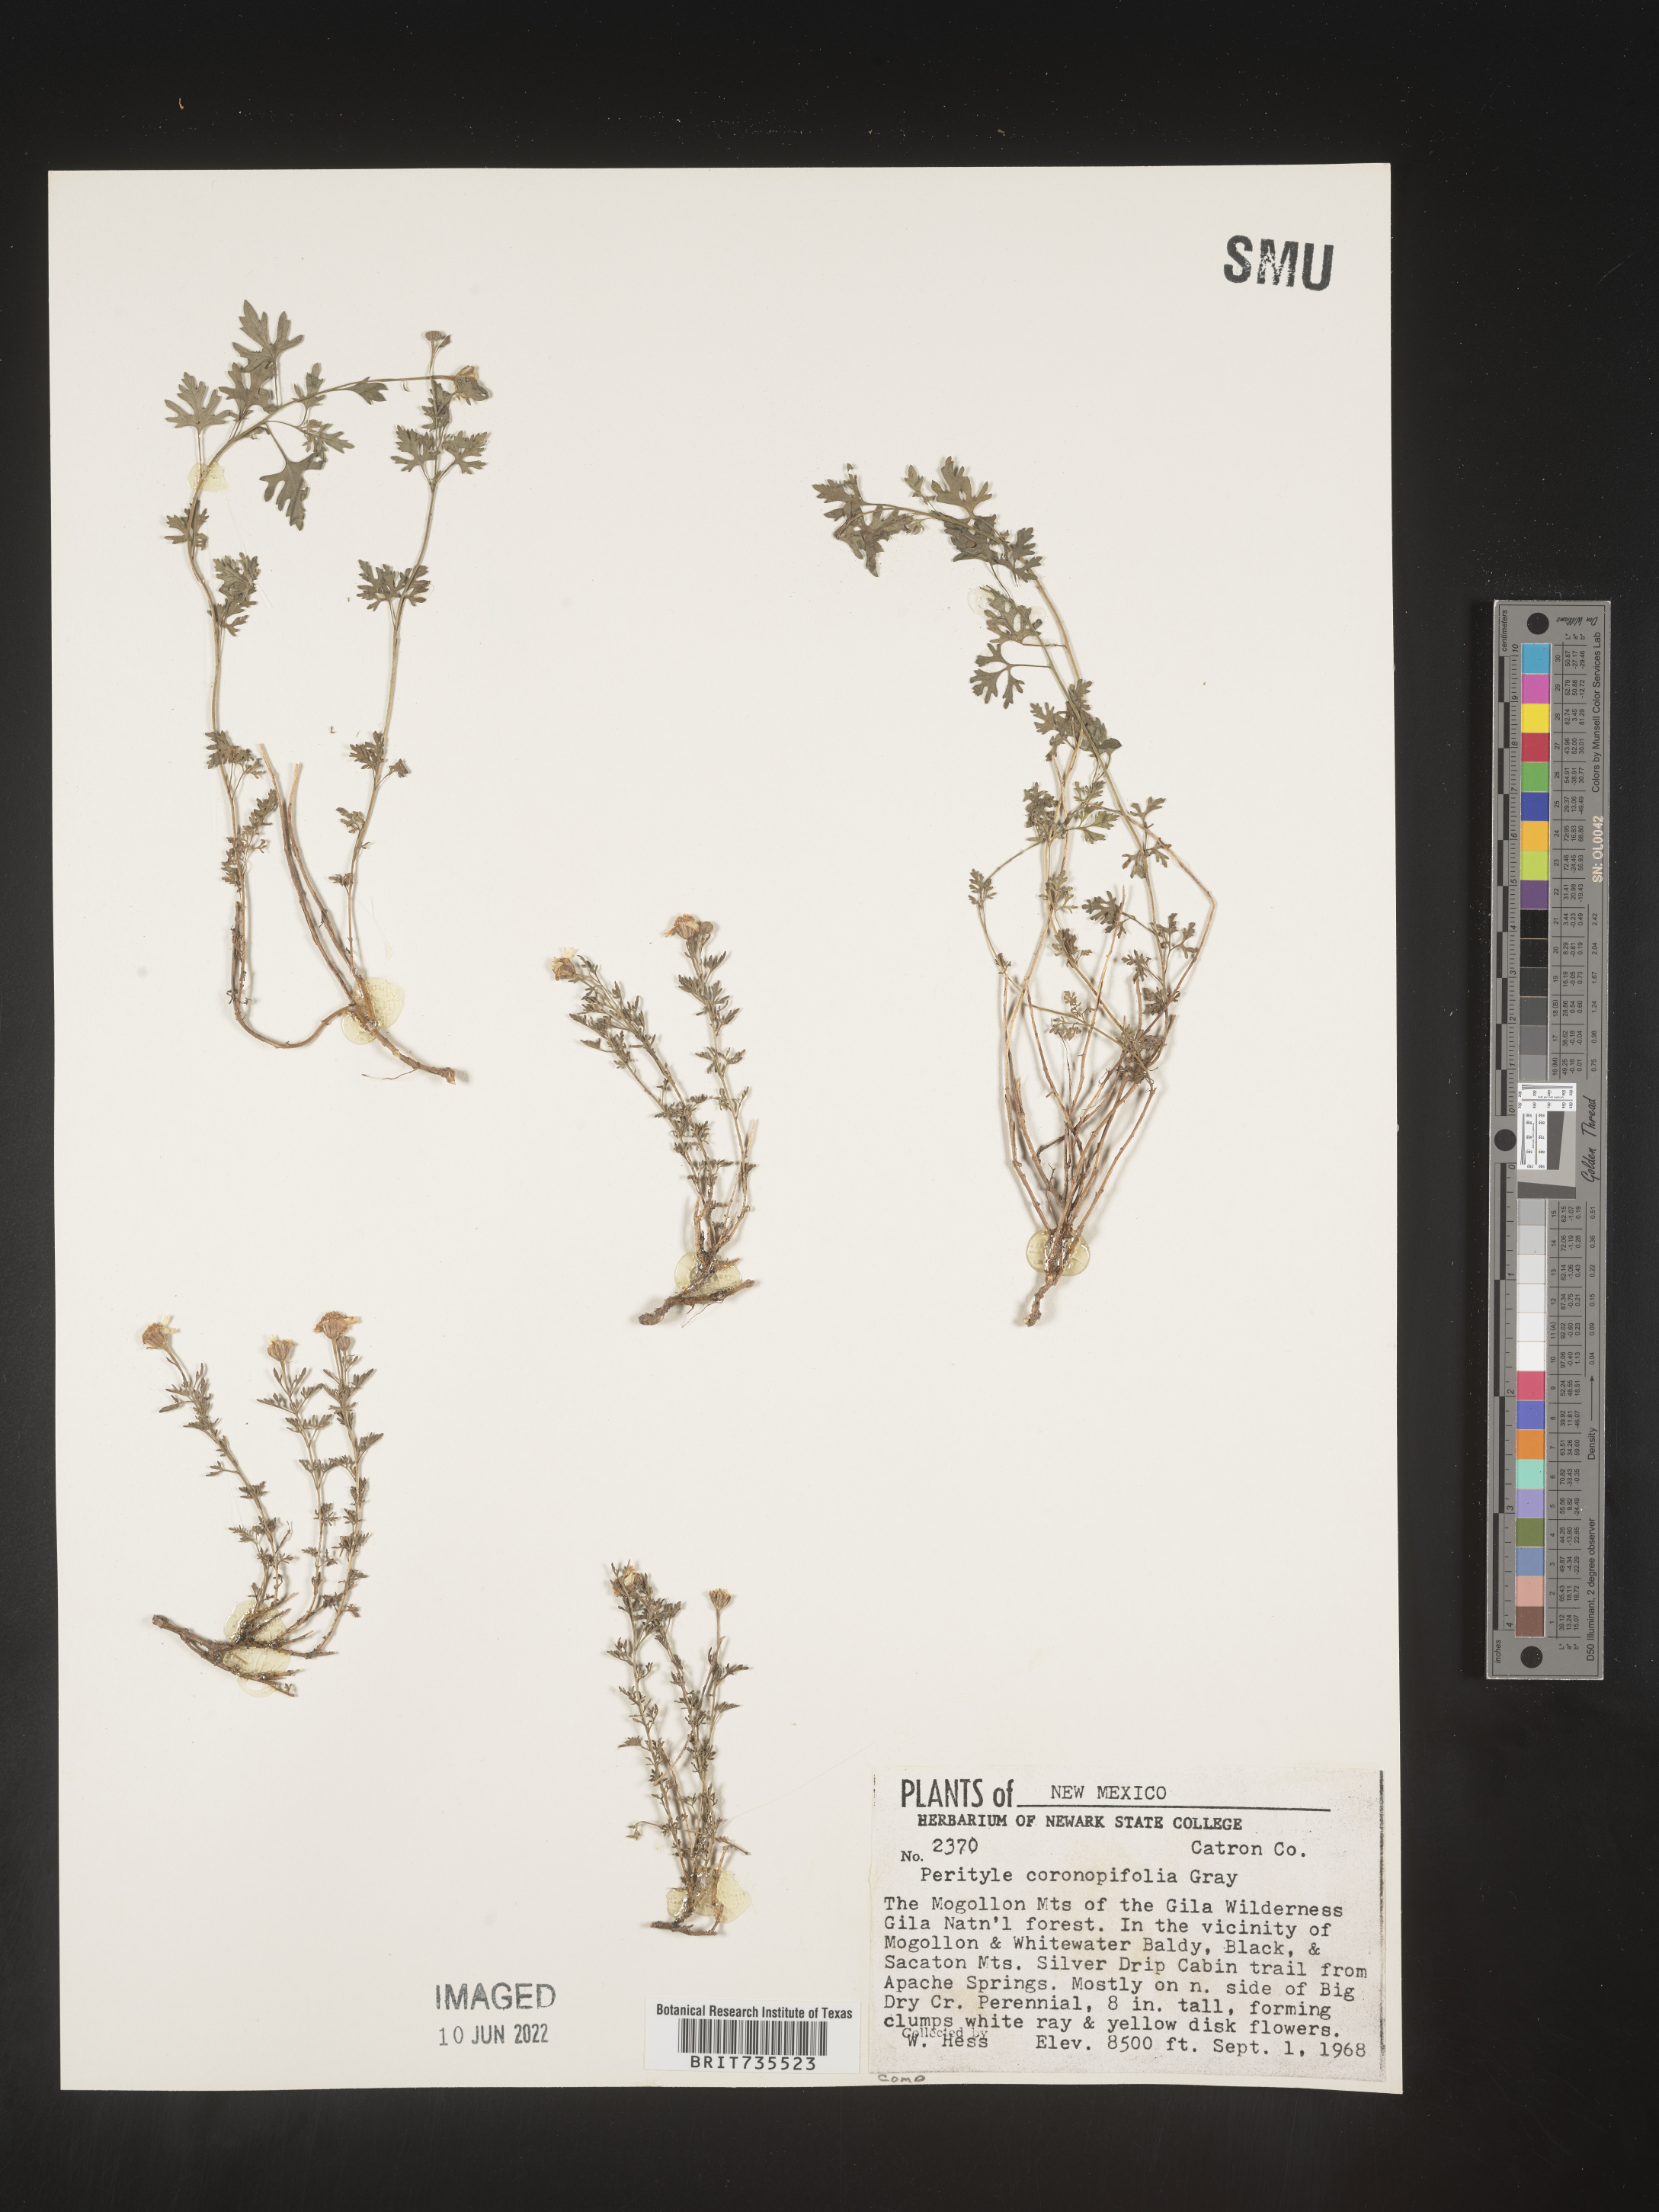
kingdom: Plantae
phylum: Tracheophyta
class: Magnoliopsida
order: Asterales
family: Asteraceae
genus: Perityle
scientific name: Perityle
